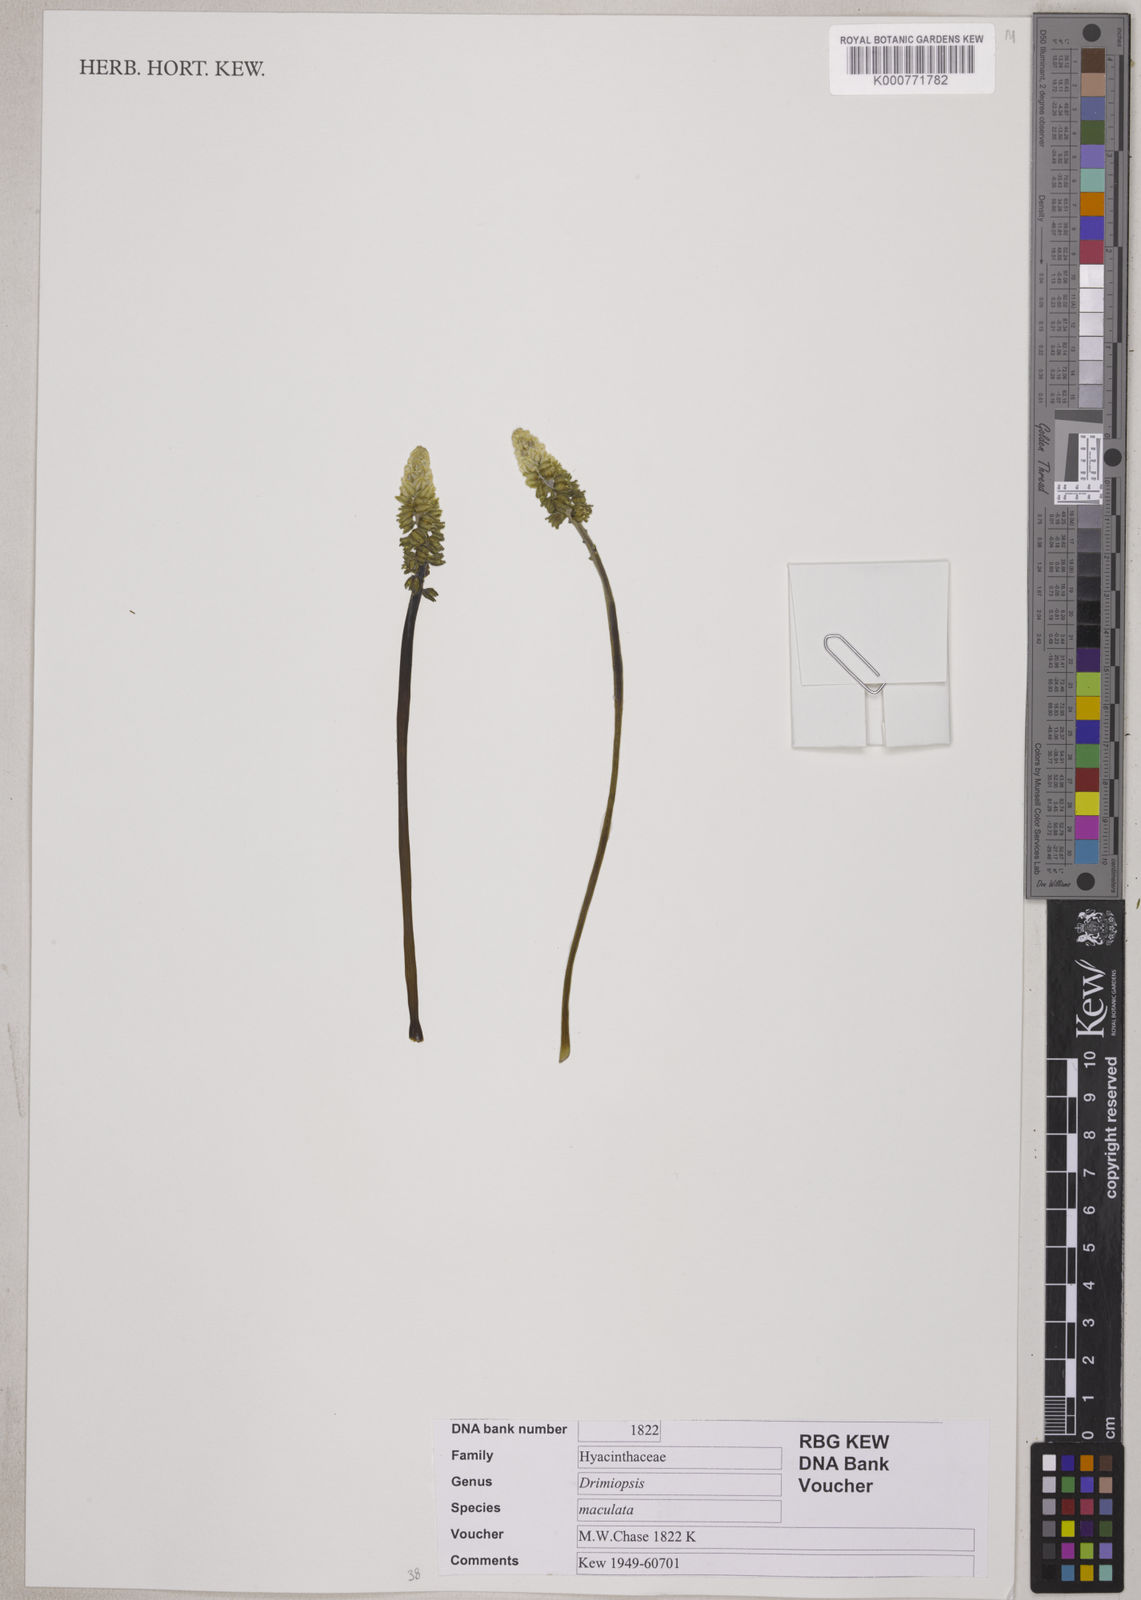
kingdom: Plantae
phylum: Tracheophyta
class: Liliopsida
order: Asparagales
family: Asparagaceae
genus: Drimiopsis
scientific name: Drimiopsis maculata
